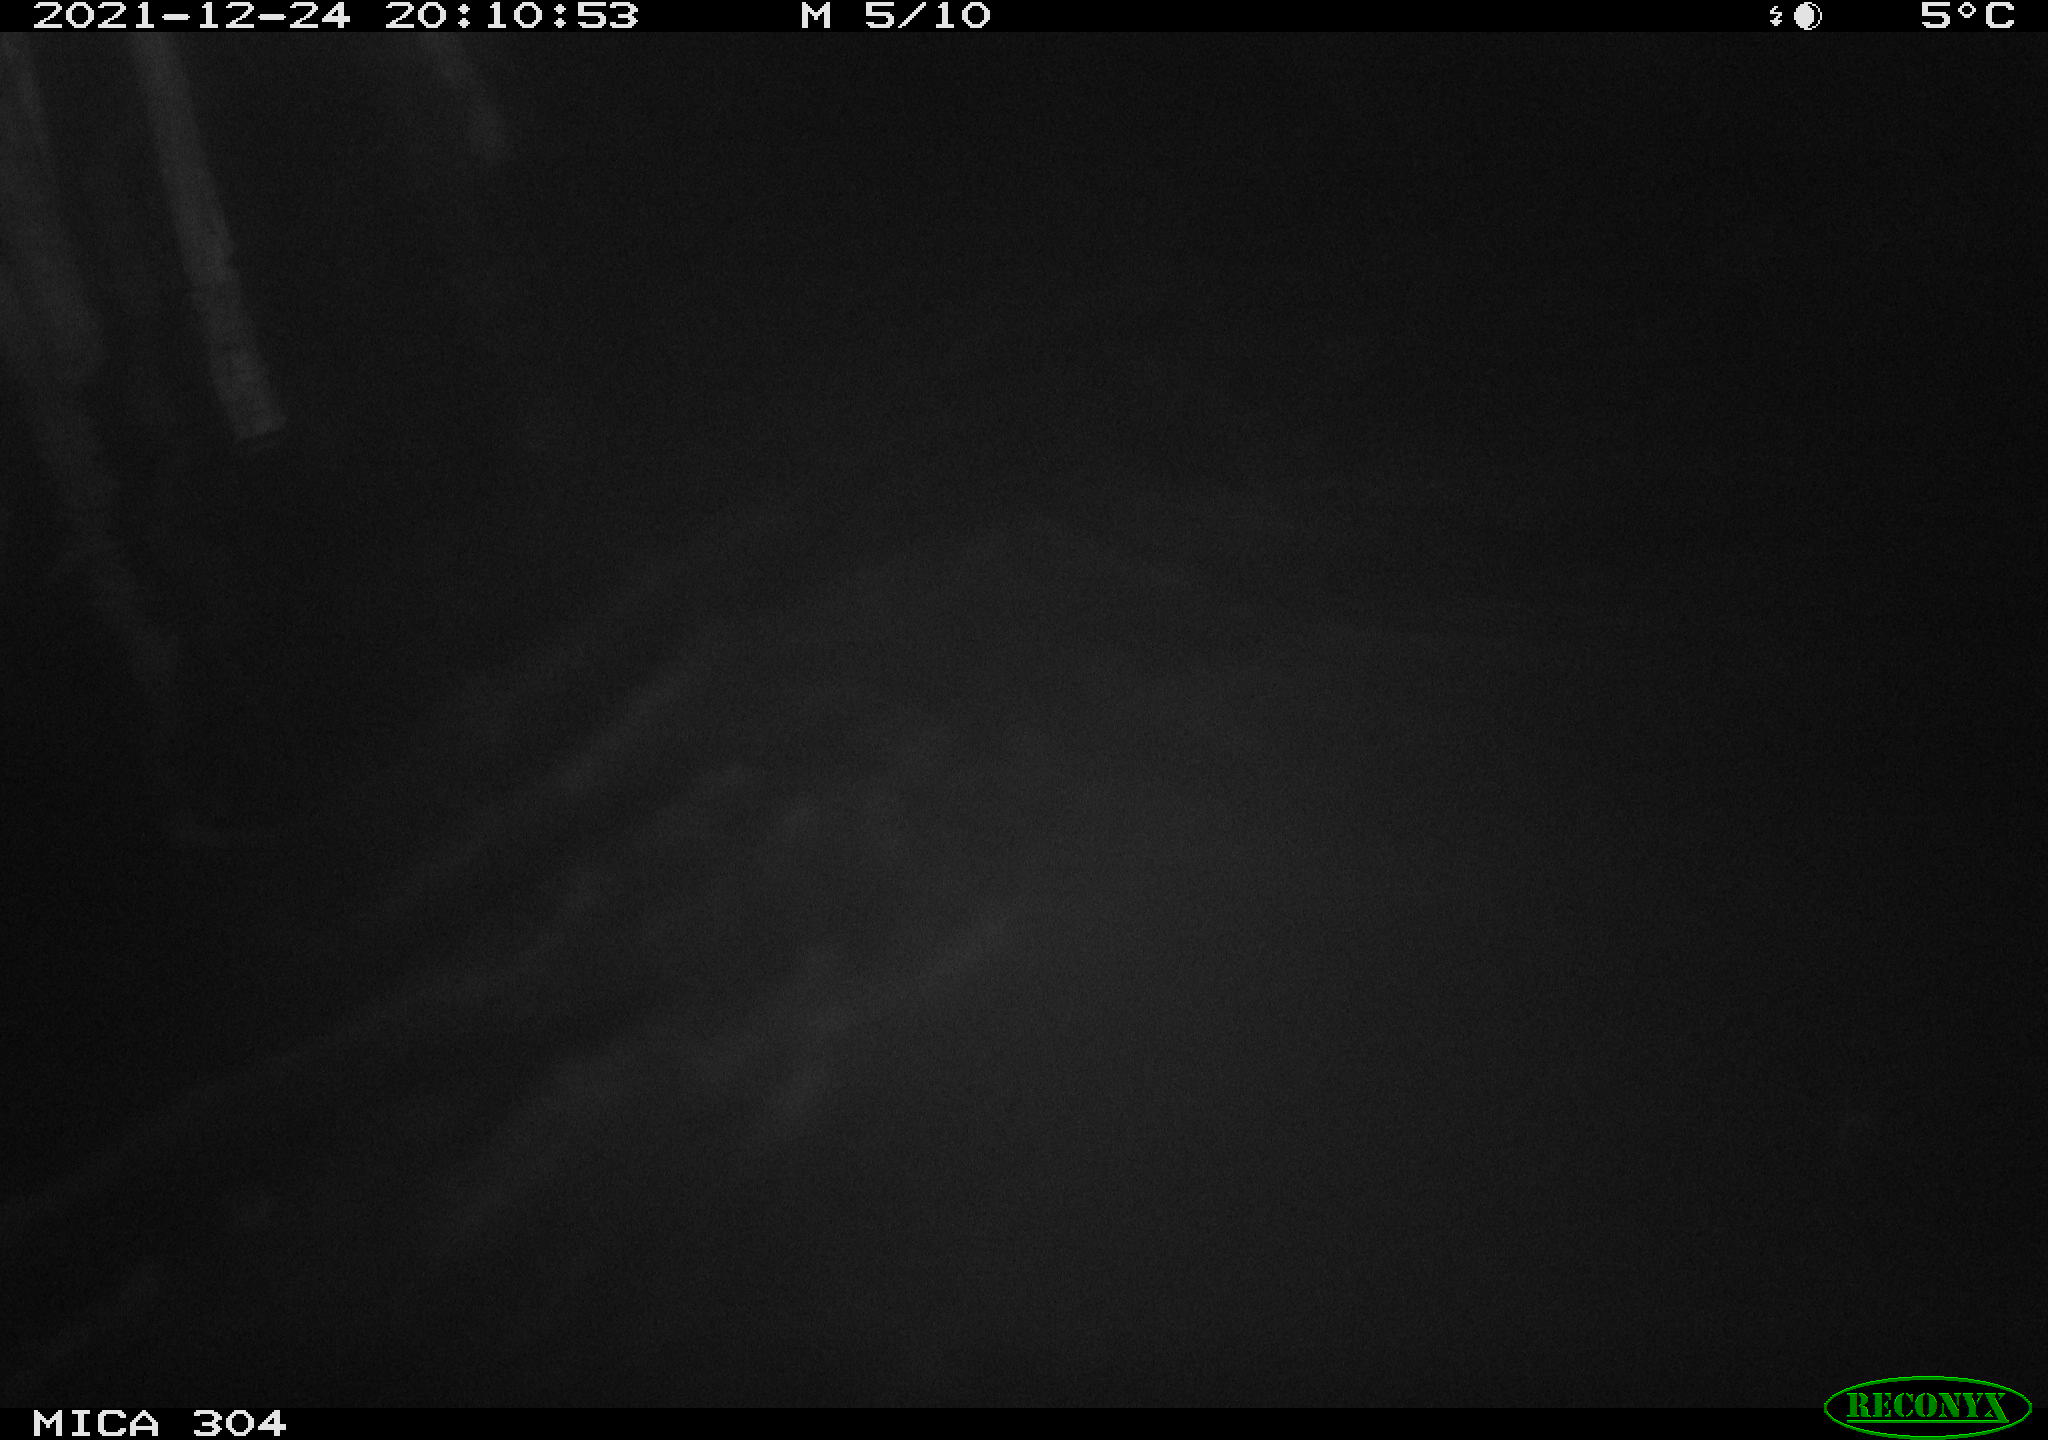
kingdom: Animalia
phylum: Chordata
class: Mammalia
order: Rodentia
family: Cricetidae
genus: Ondatra
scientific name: Ondatra zibethicus
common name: Muskrat
